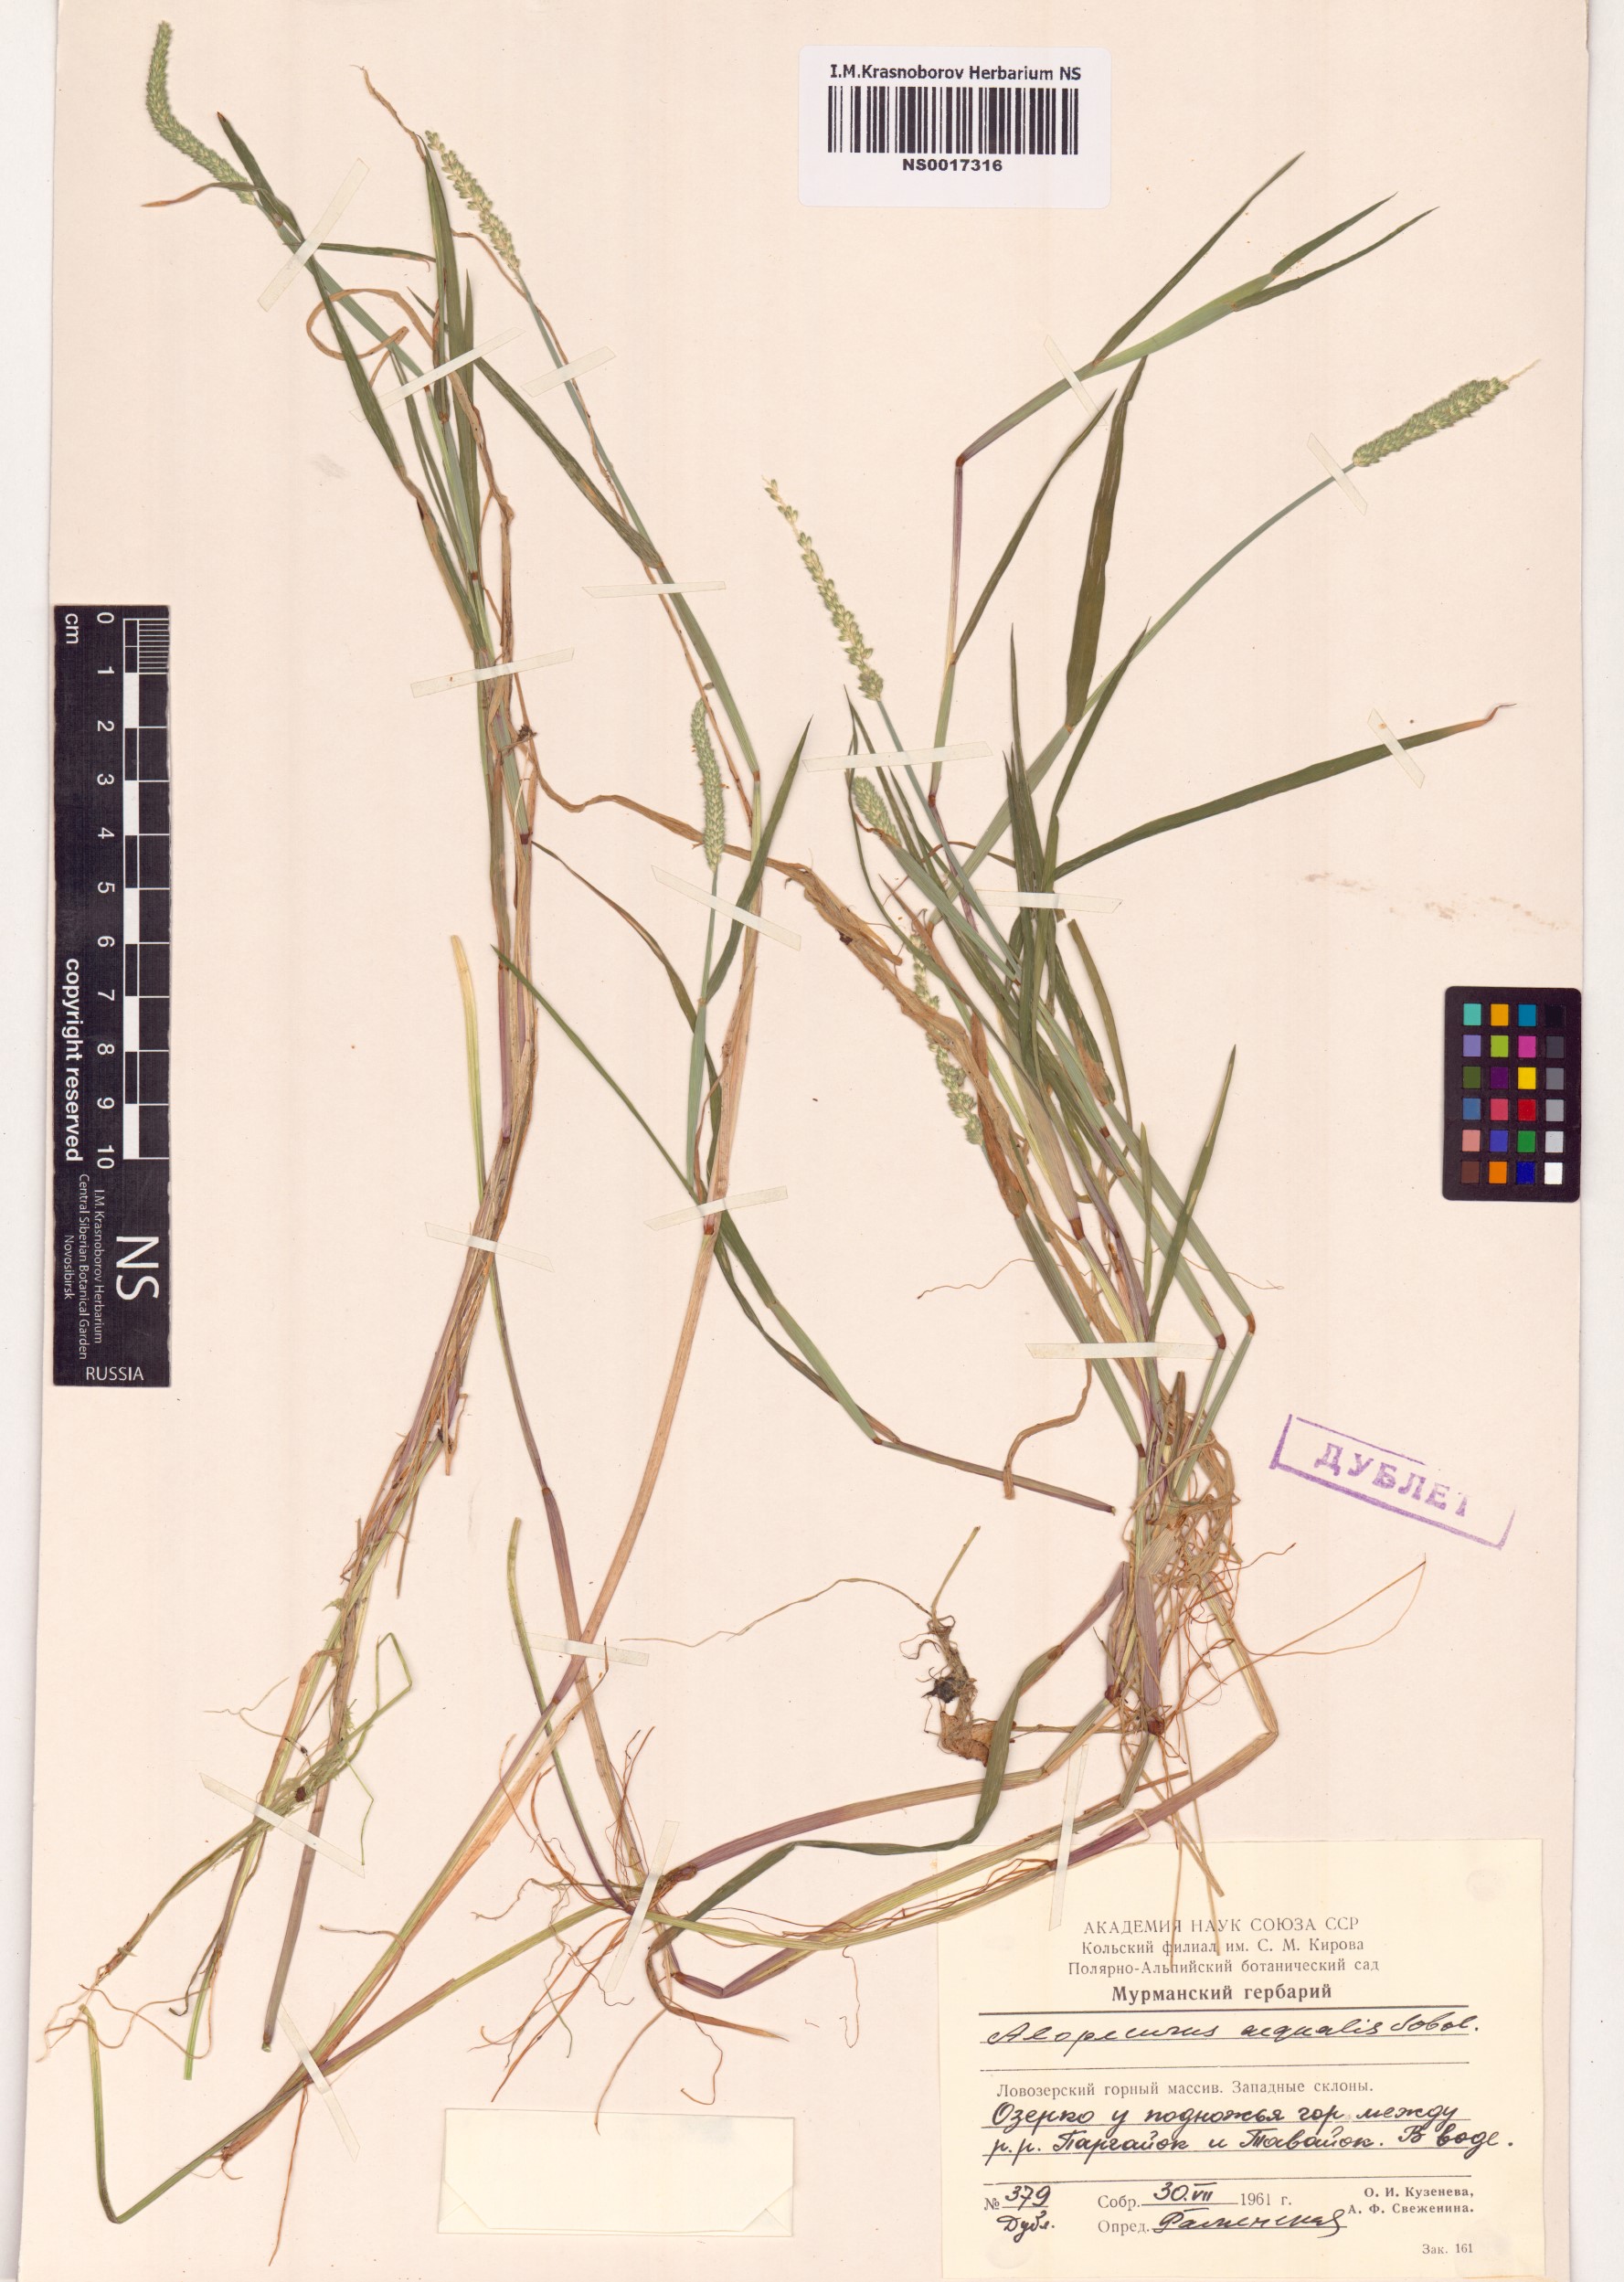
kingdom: Plantae
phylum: Tracheophyta
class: Liliopsida
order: Poales
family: Poaceae
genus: Alopecurus
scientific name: Alopecurus aequalis
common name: Orange foxtail
